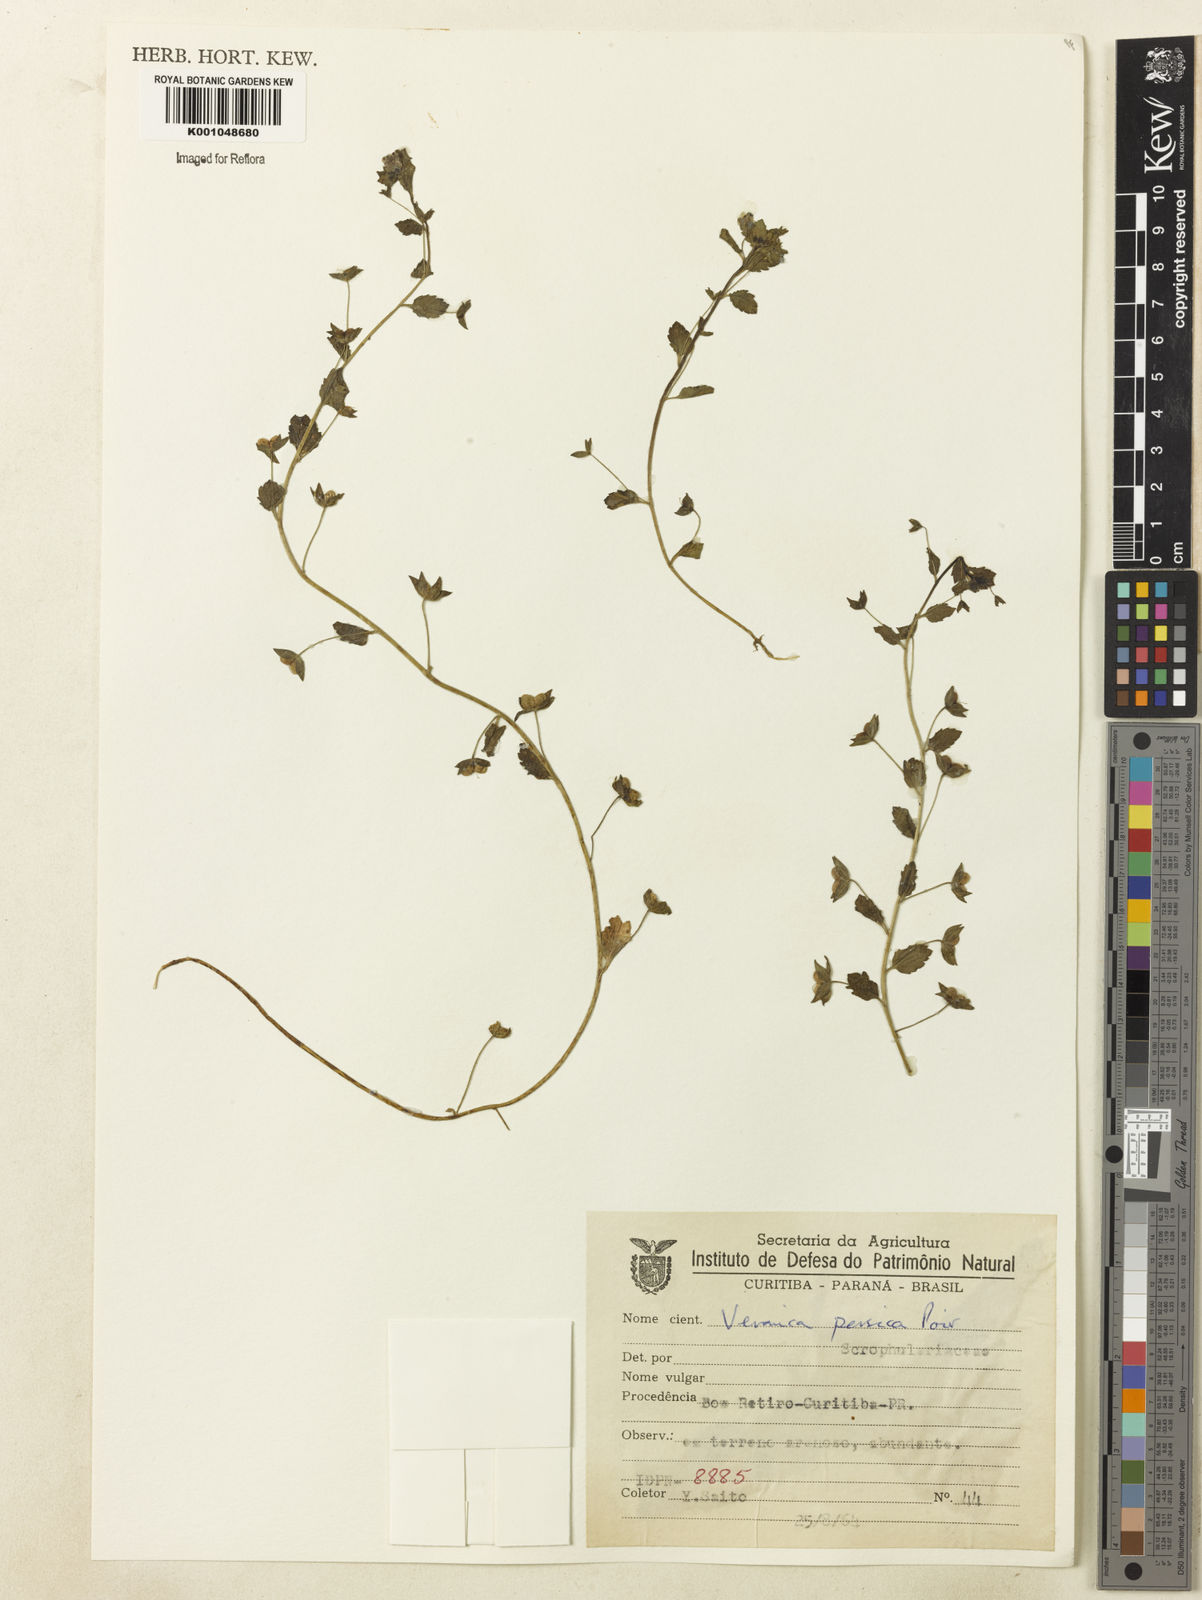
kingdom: Plantae
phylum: Tracheophyta
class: Magnoliopsida
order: Lamiales
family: Plantaginaceae
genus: Veronica
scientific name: Veronica persica
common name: Common field-speedwell
